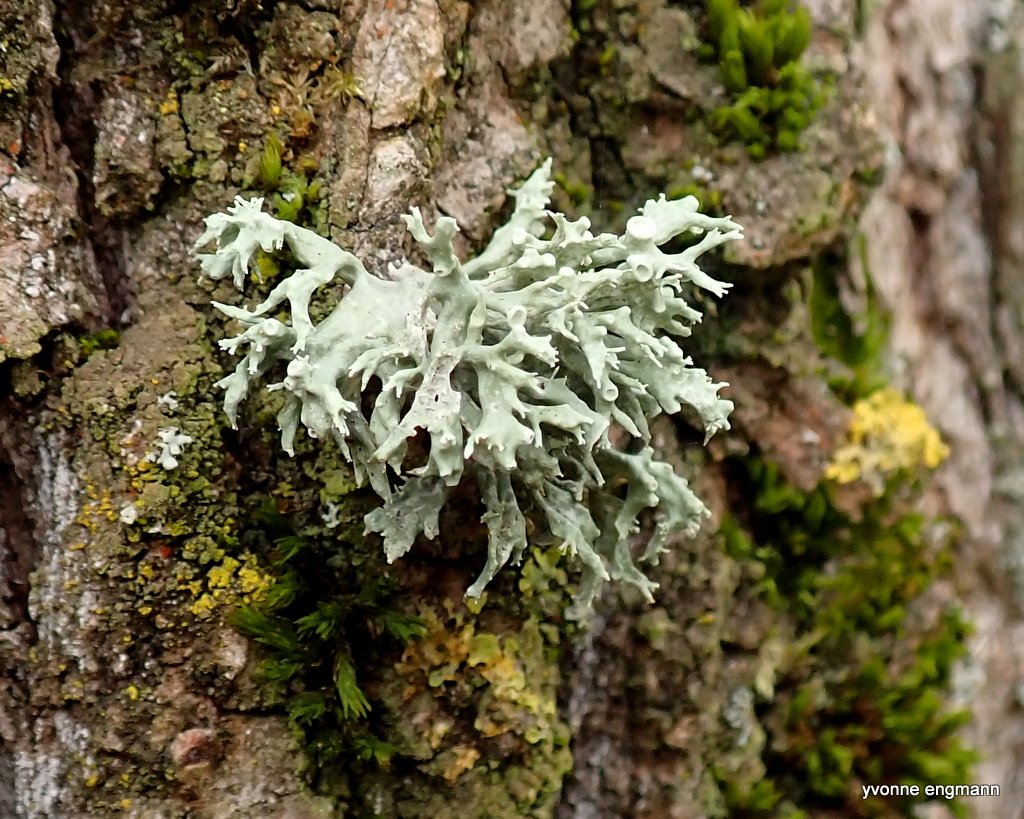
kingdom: Fungi
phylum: Ascomycota
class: Lecanoromycetes
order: Lecanorales
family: Ramalinaceae
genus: Ramalina
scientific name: Ramalina fastigiata
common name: tue-grenlav
